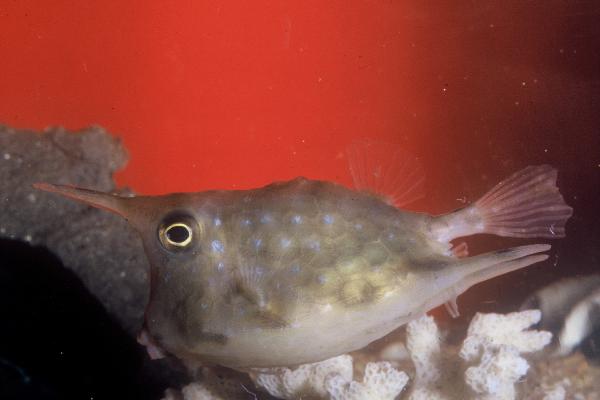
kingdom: Animalia
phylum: Chordata
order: Tetraodontiformes
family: Ostraciidae
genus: Lactoria
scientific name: Lactoria cornuta
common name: Longhorn cowfish
